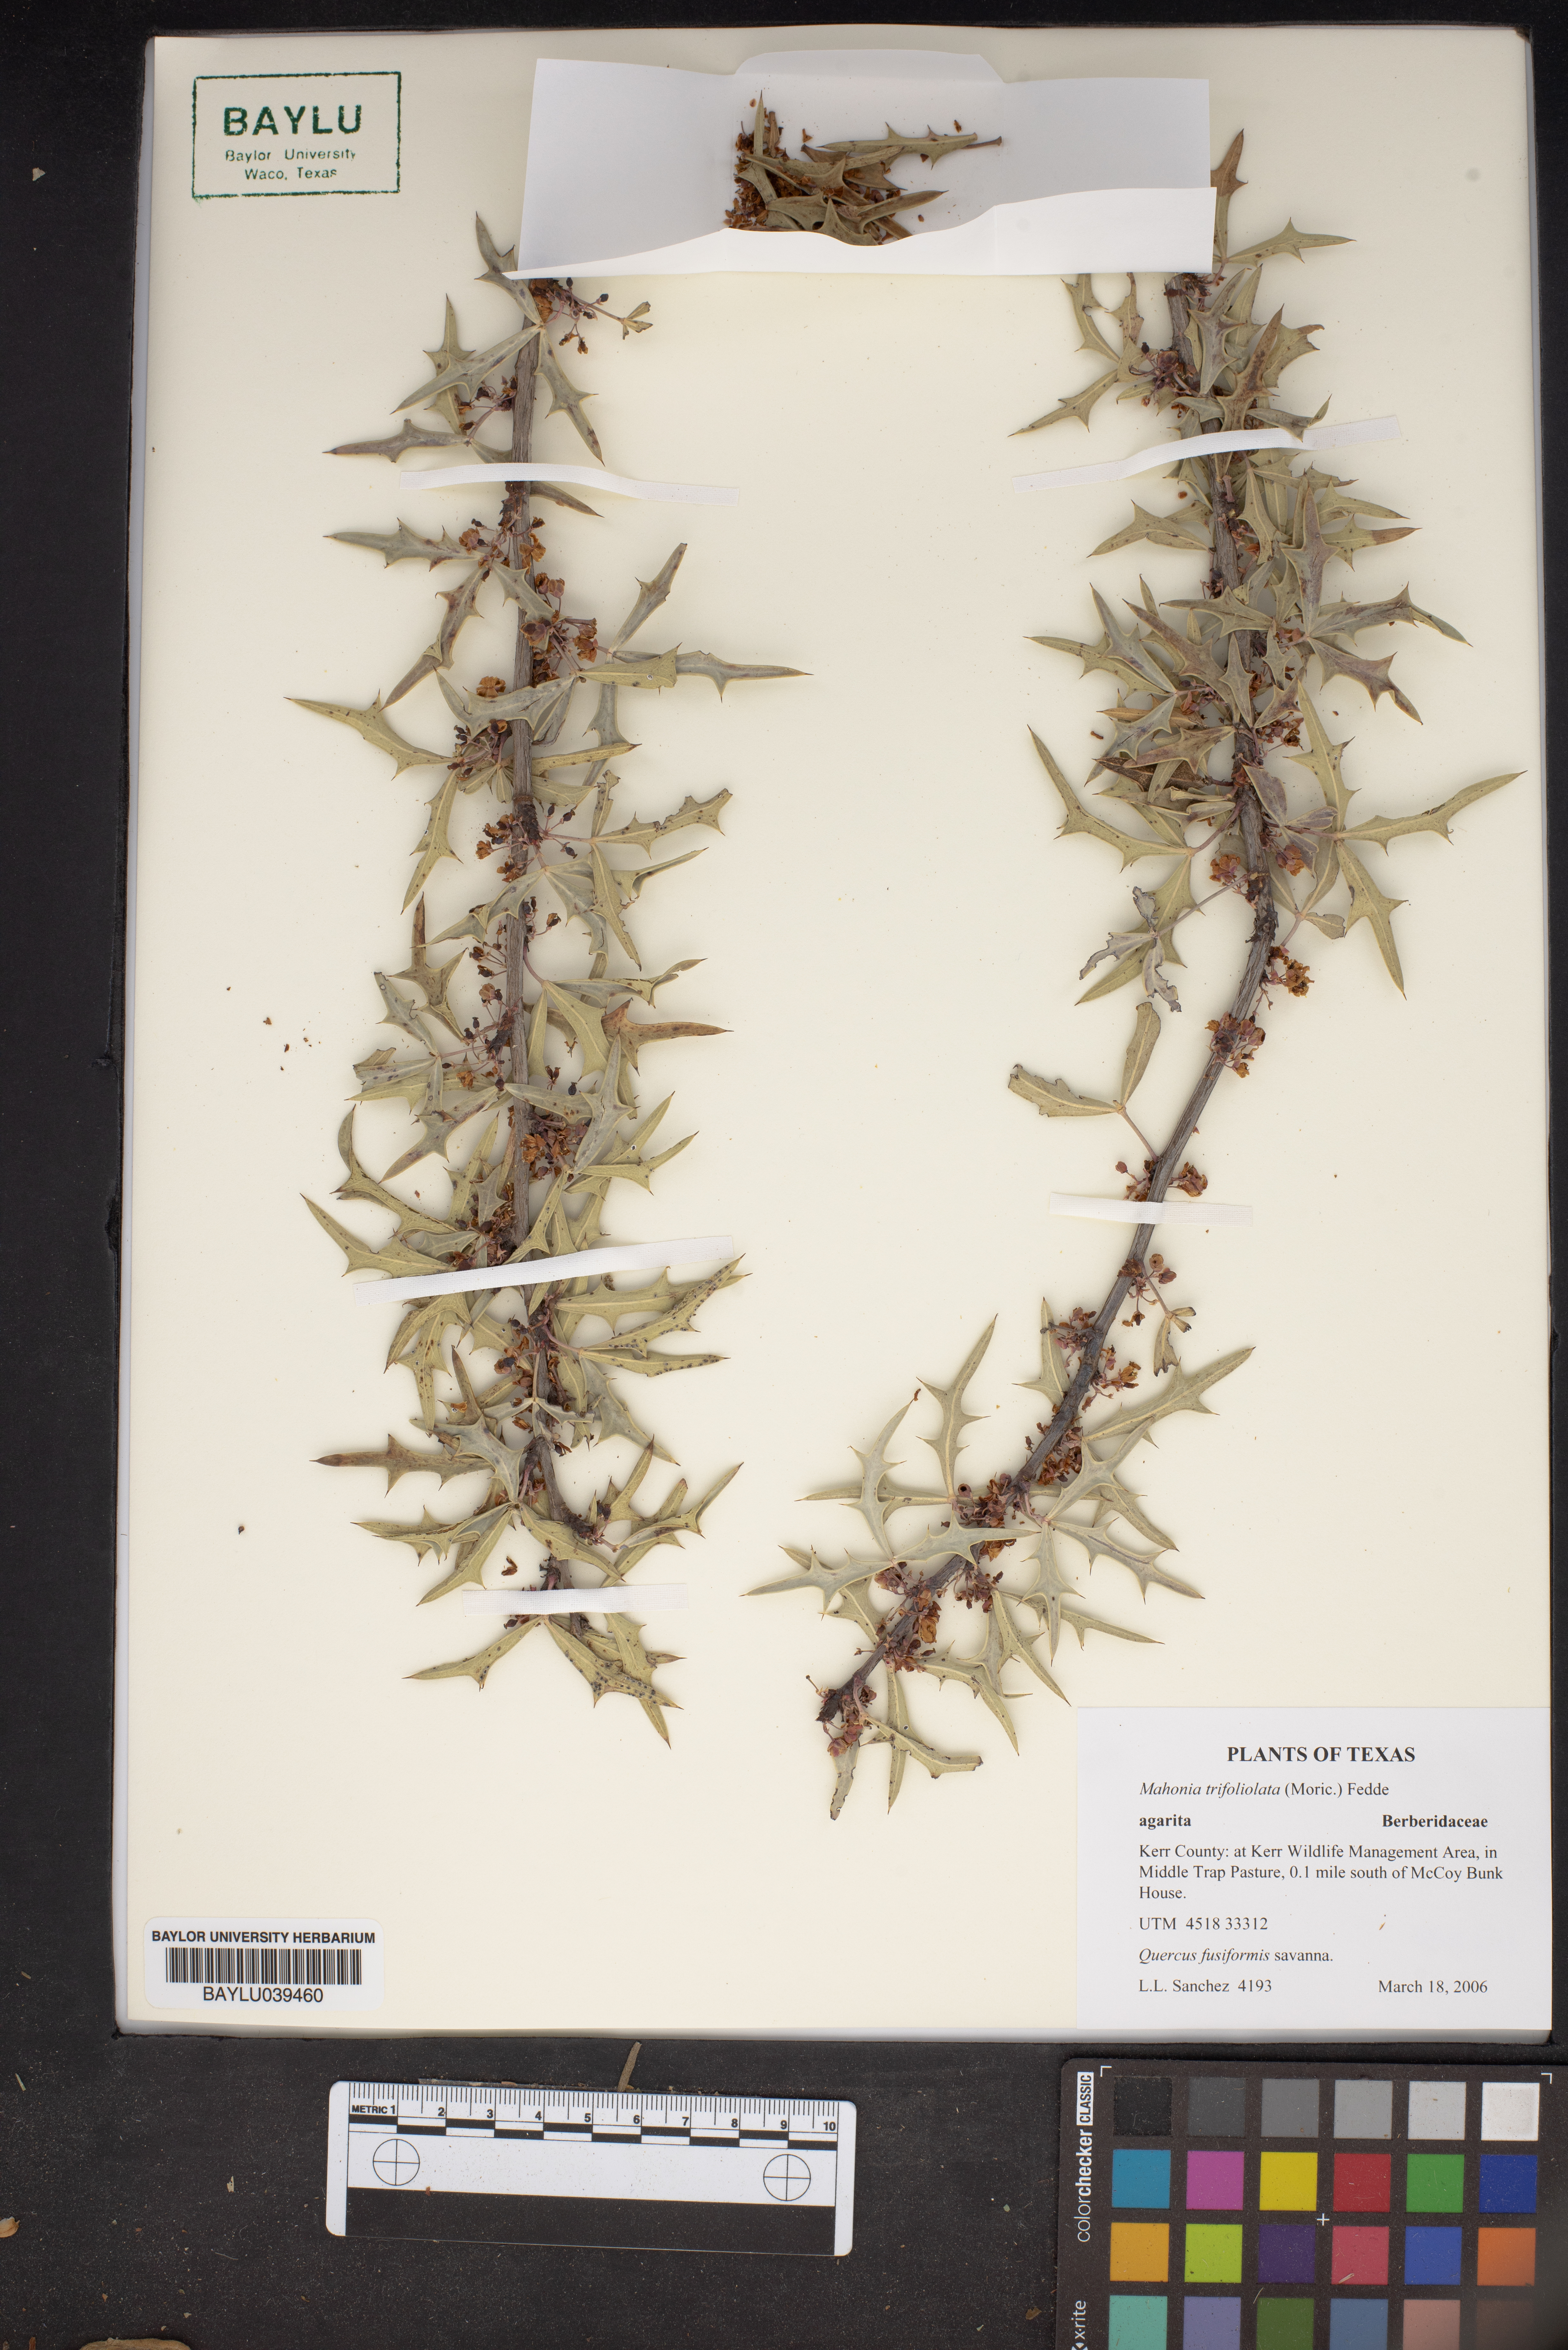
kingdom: Plantae
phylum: Tracheophyta
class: Magnoliopsida
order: Ranunculales
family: Berberidaceae
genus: Alloberberis
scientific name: Alloberberis trifoliolata
